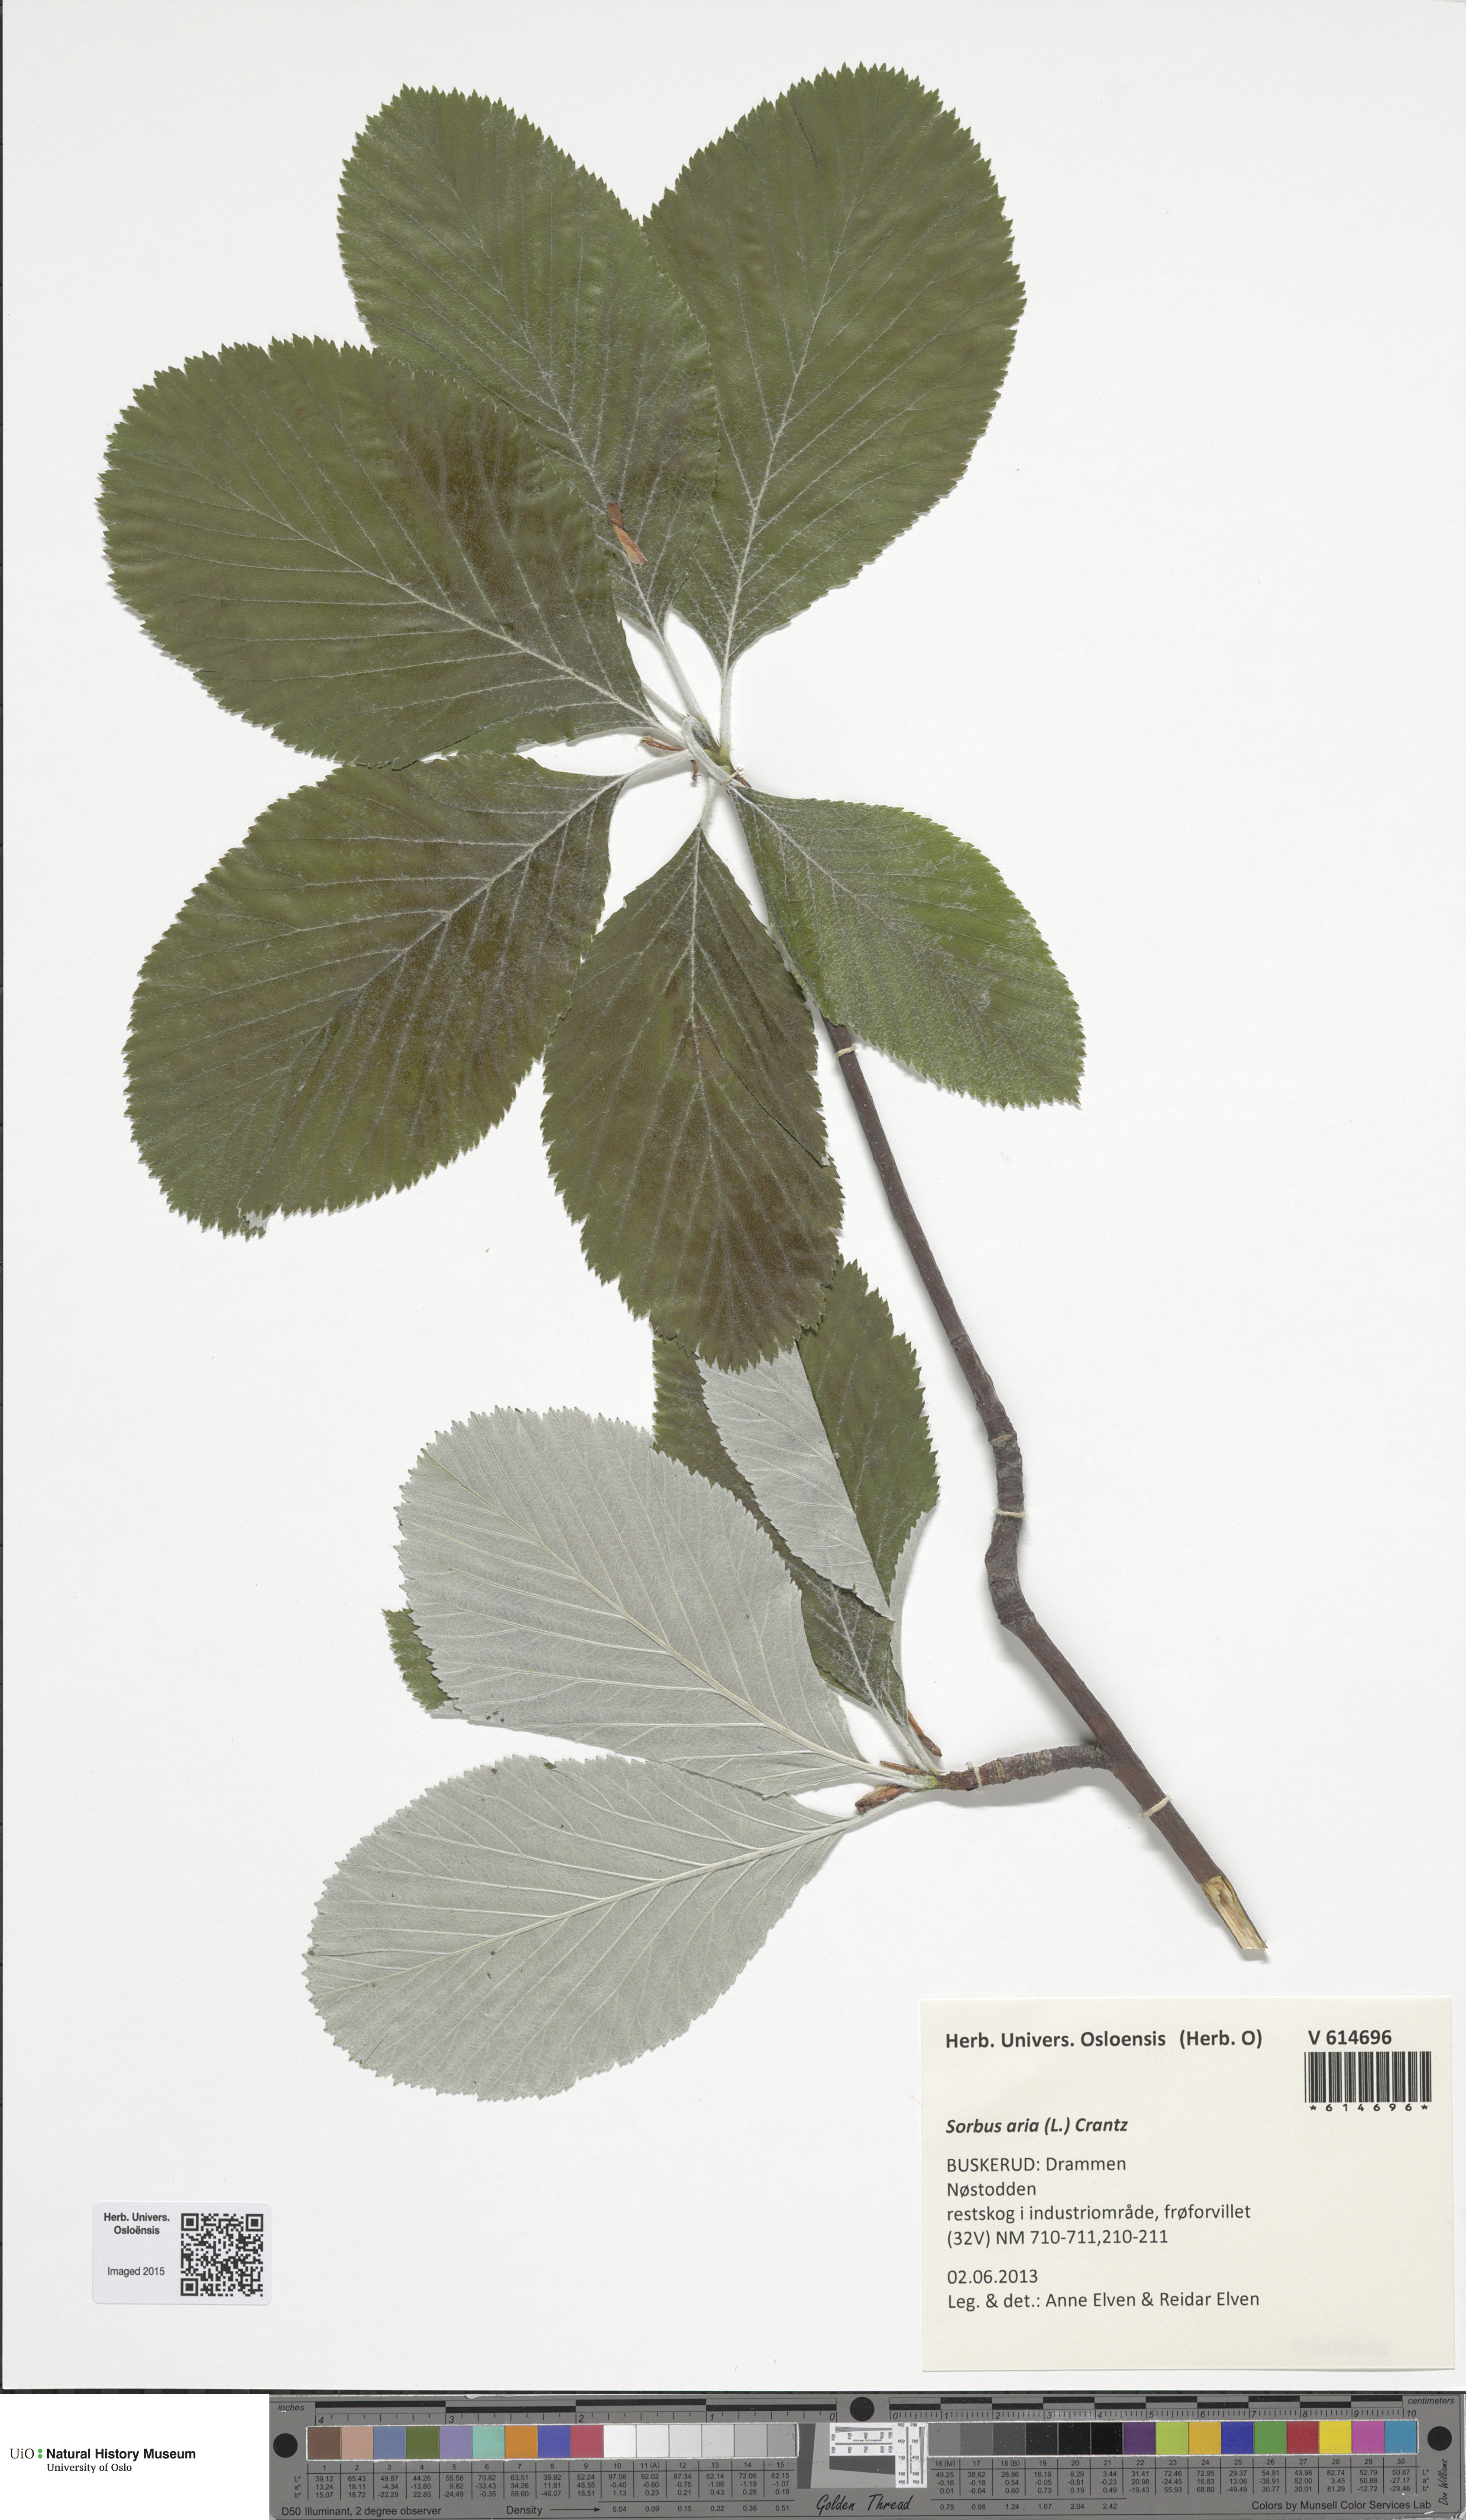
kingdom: Plantae
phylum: Tracheophyta
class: Magnoliopsida
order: Rosales
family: Rosaceae
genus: Aria
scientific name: Aria edulis
